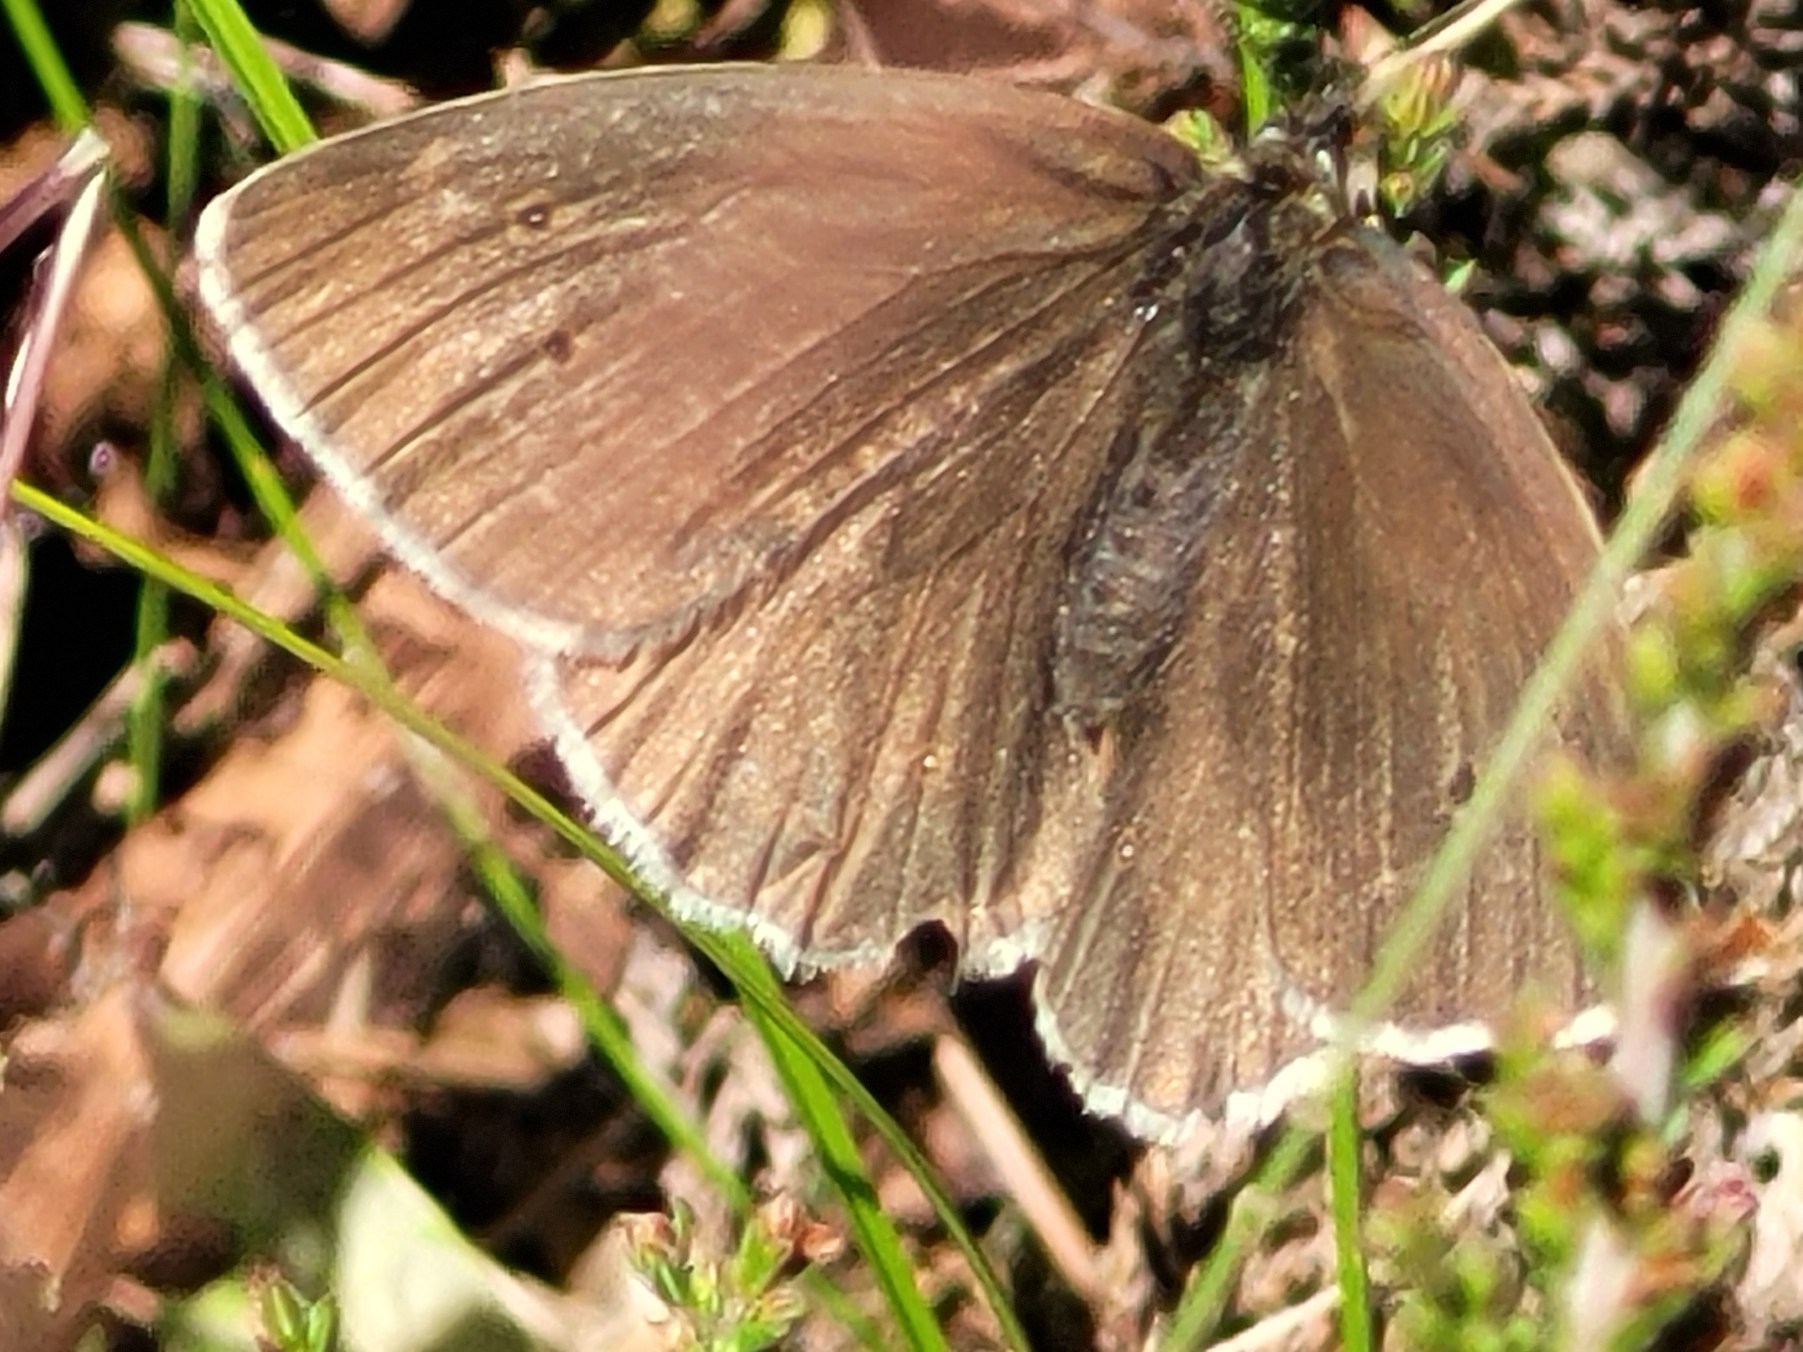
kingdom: Animalia
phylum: Arthropoda
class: Insecta
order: Lepidoptera
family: Nymphalidae
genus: Aphantopus
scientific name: Aphantopus hyperantus
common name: Engrandøje
